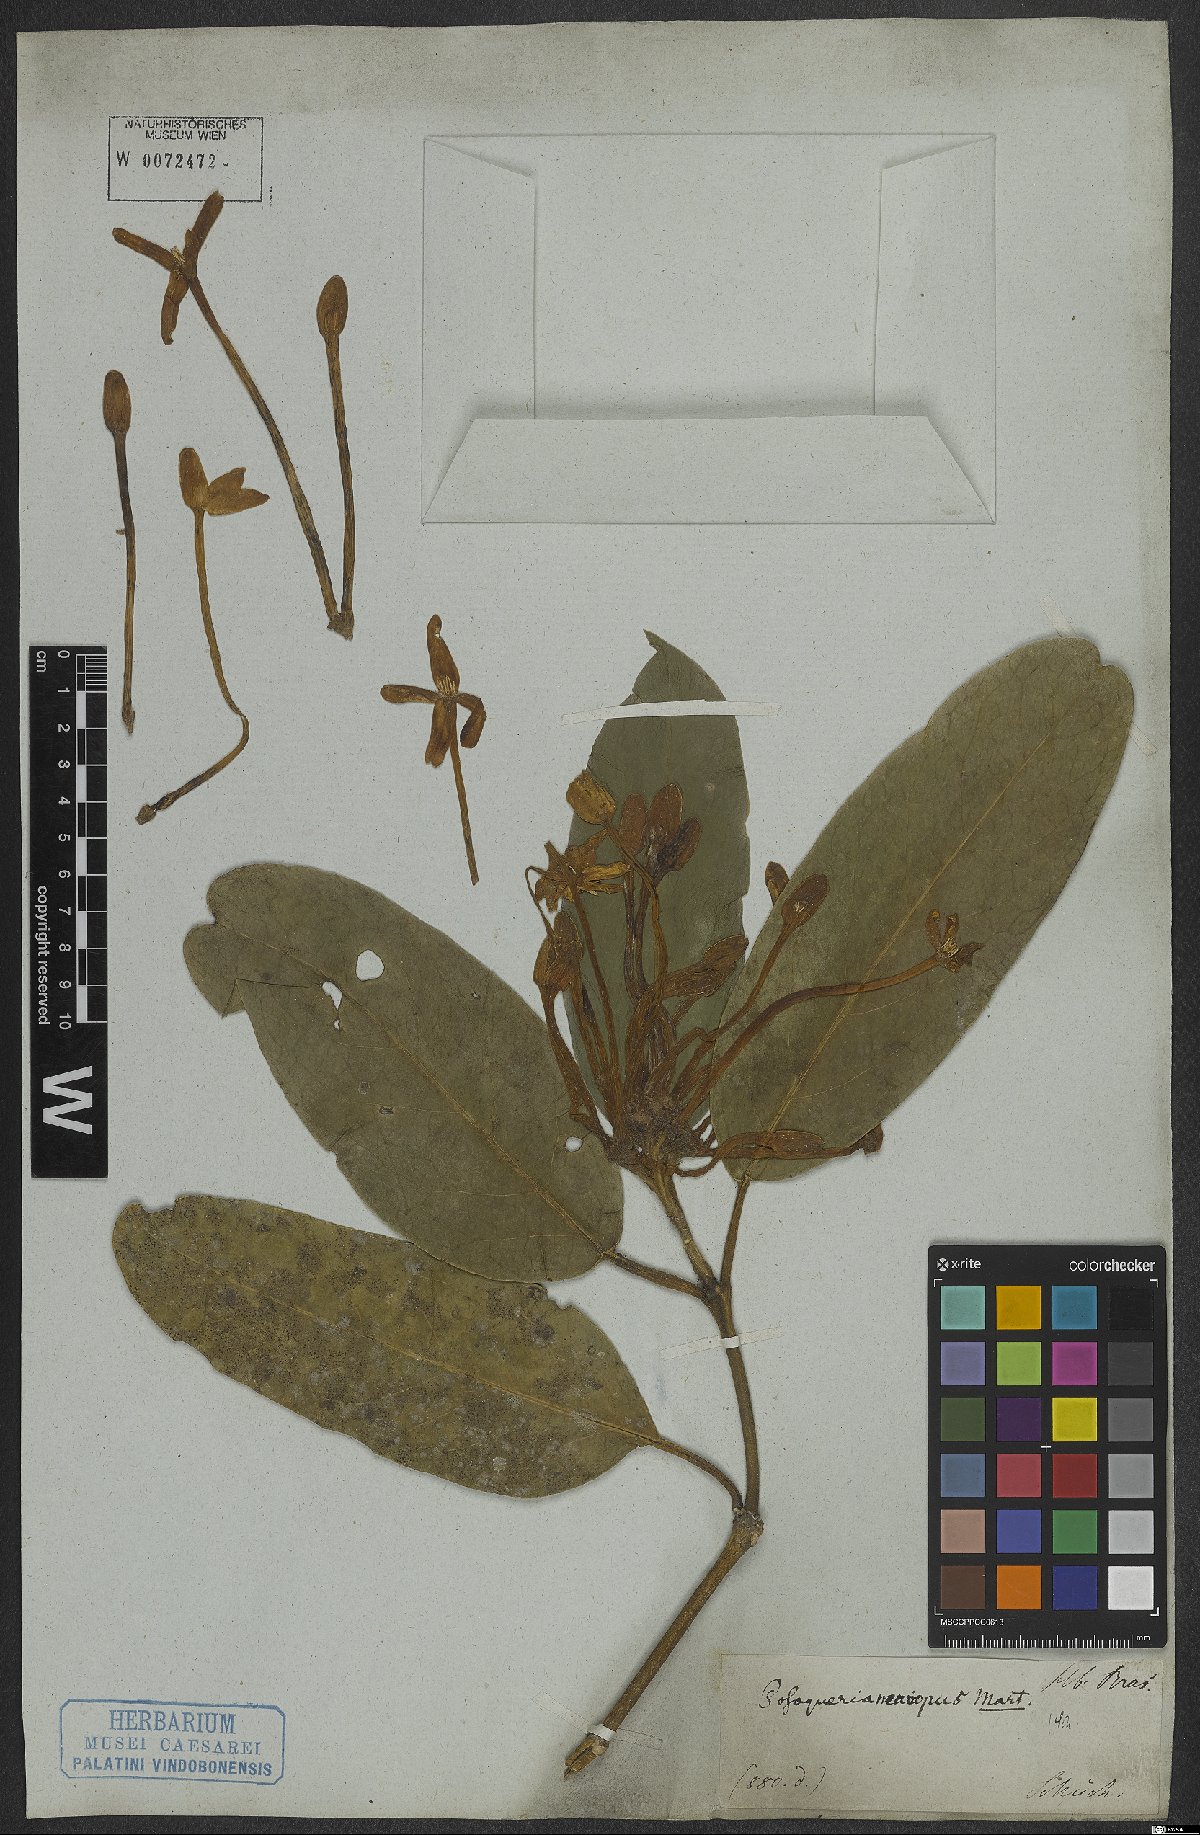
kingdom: Plantae
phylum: Tracheophyta
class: Magnoliopsida
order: Gentianales
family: Rubiaceae
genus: Posoqueria
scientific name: Posoqueria latifolia
